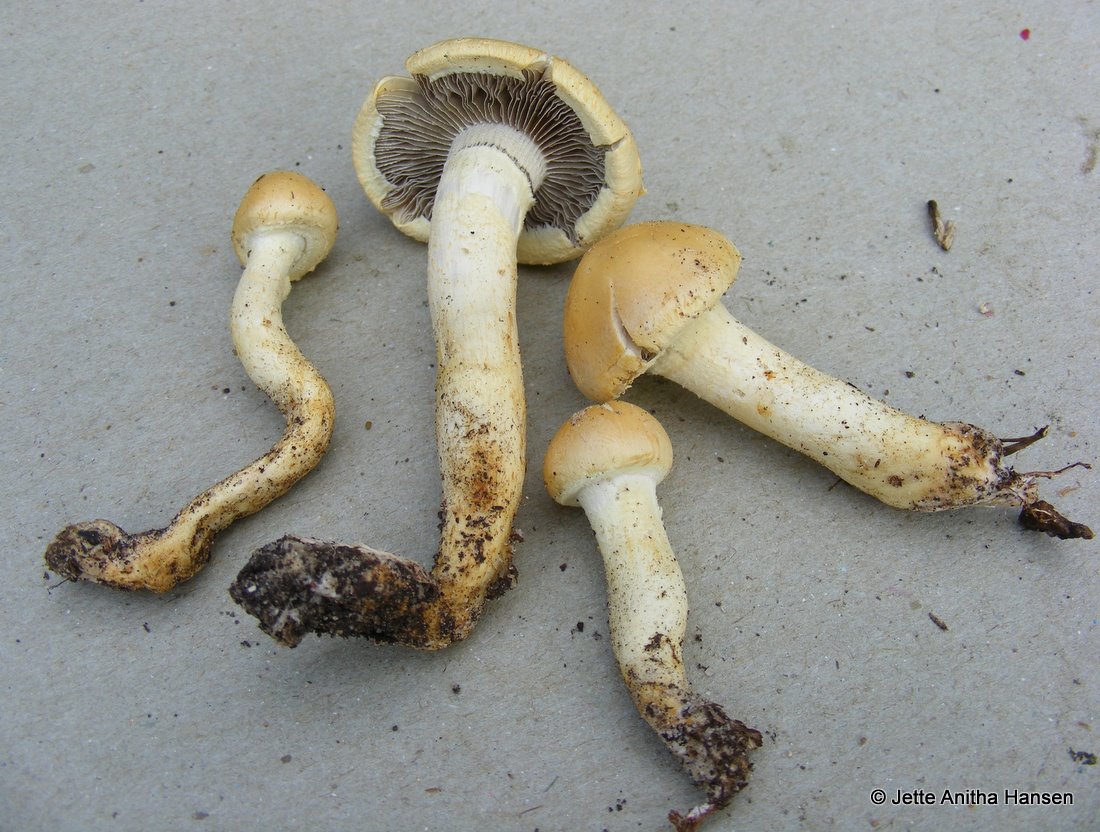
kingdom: Fungi
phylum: Basidiomycota
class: Agaricomycetes
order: Agaricales
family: Strophariaceae
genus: Leratiomyces
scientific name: Leratiomyces percevalii
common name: træflis-bredblad
